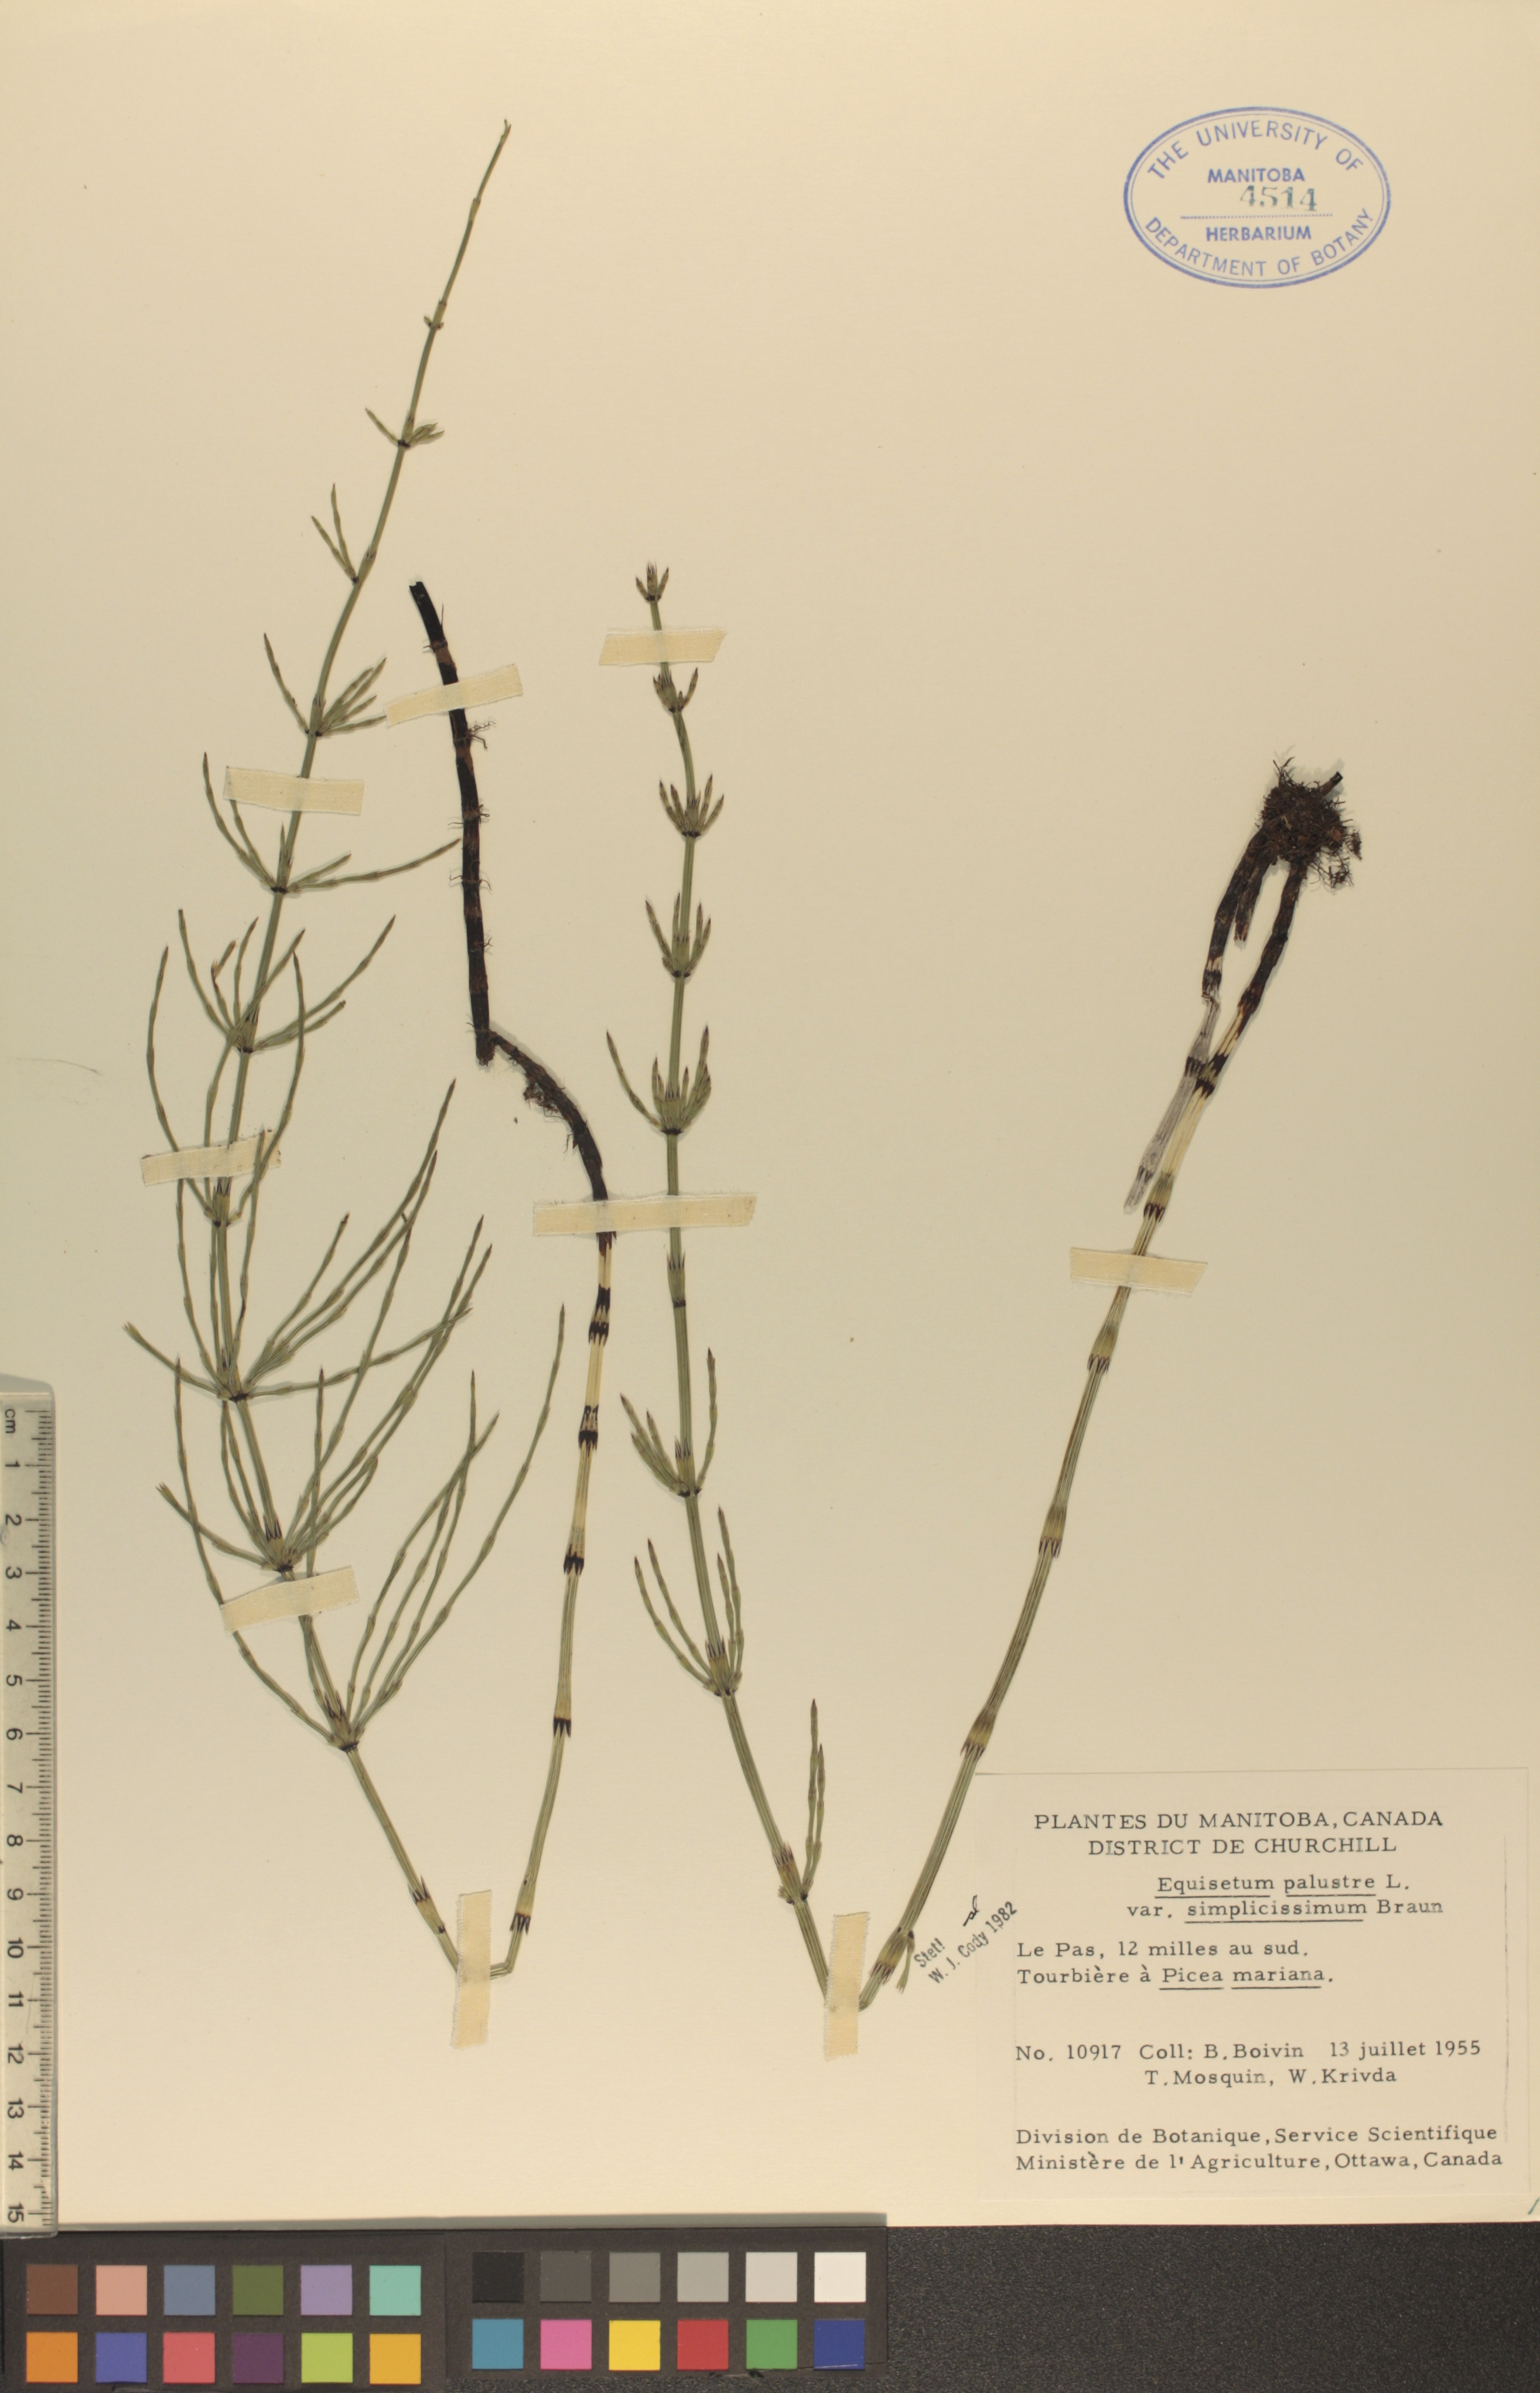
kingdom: Plantae
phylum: Tracheophyta
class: Polypodiopsida
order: Equisetales
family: Equisetaceae
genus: Equisetum
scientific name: Equisetum palustre
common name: Marsh horsetail
